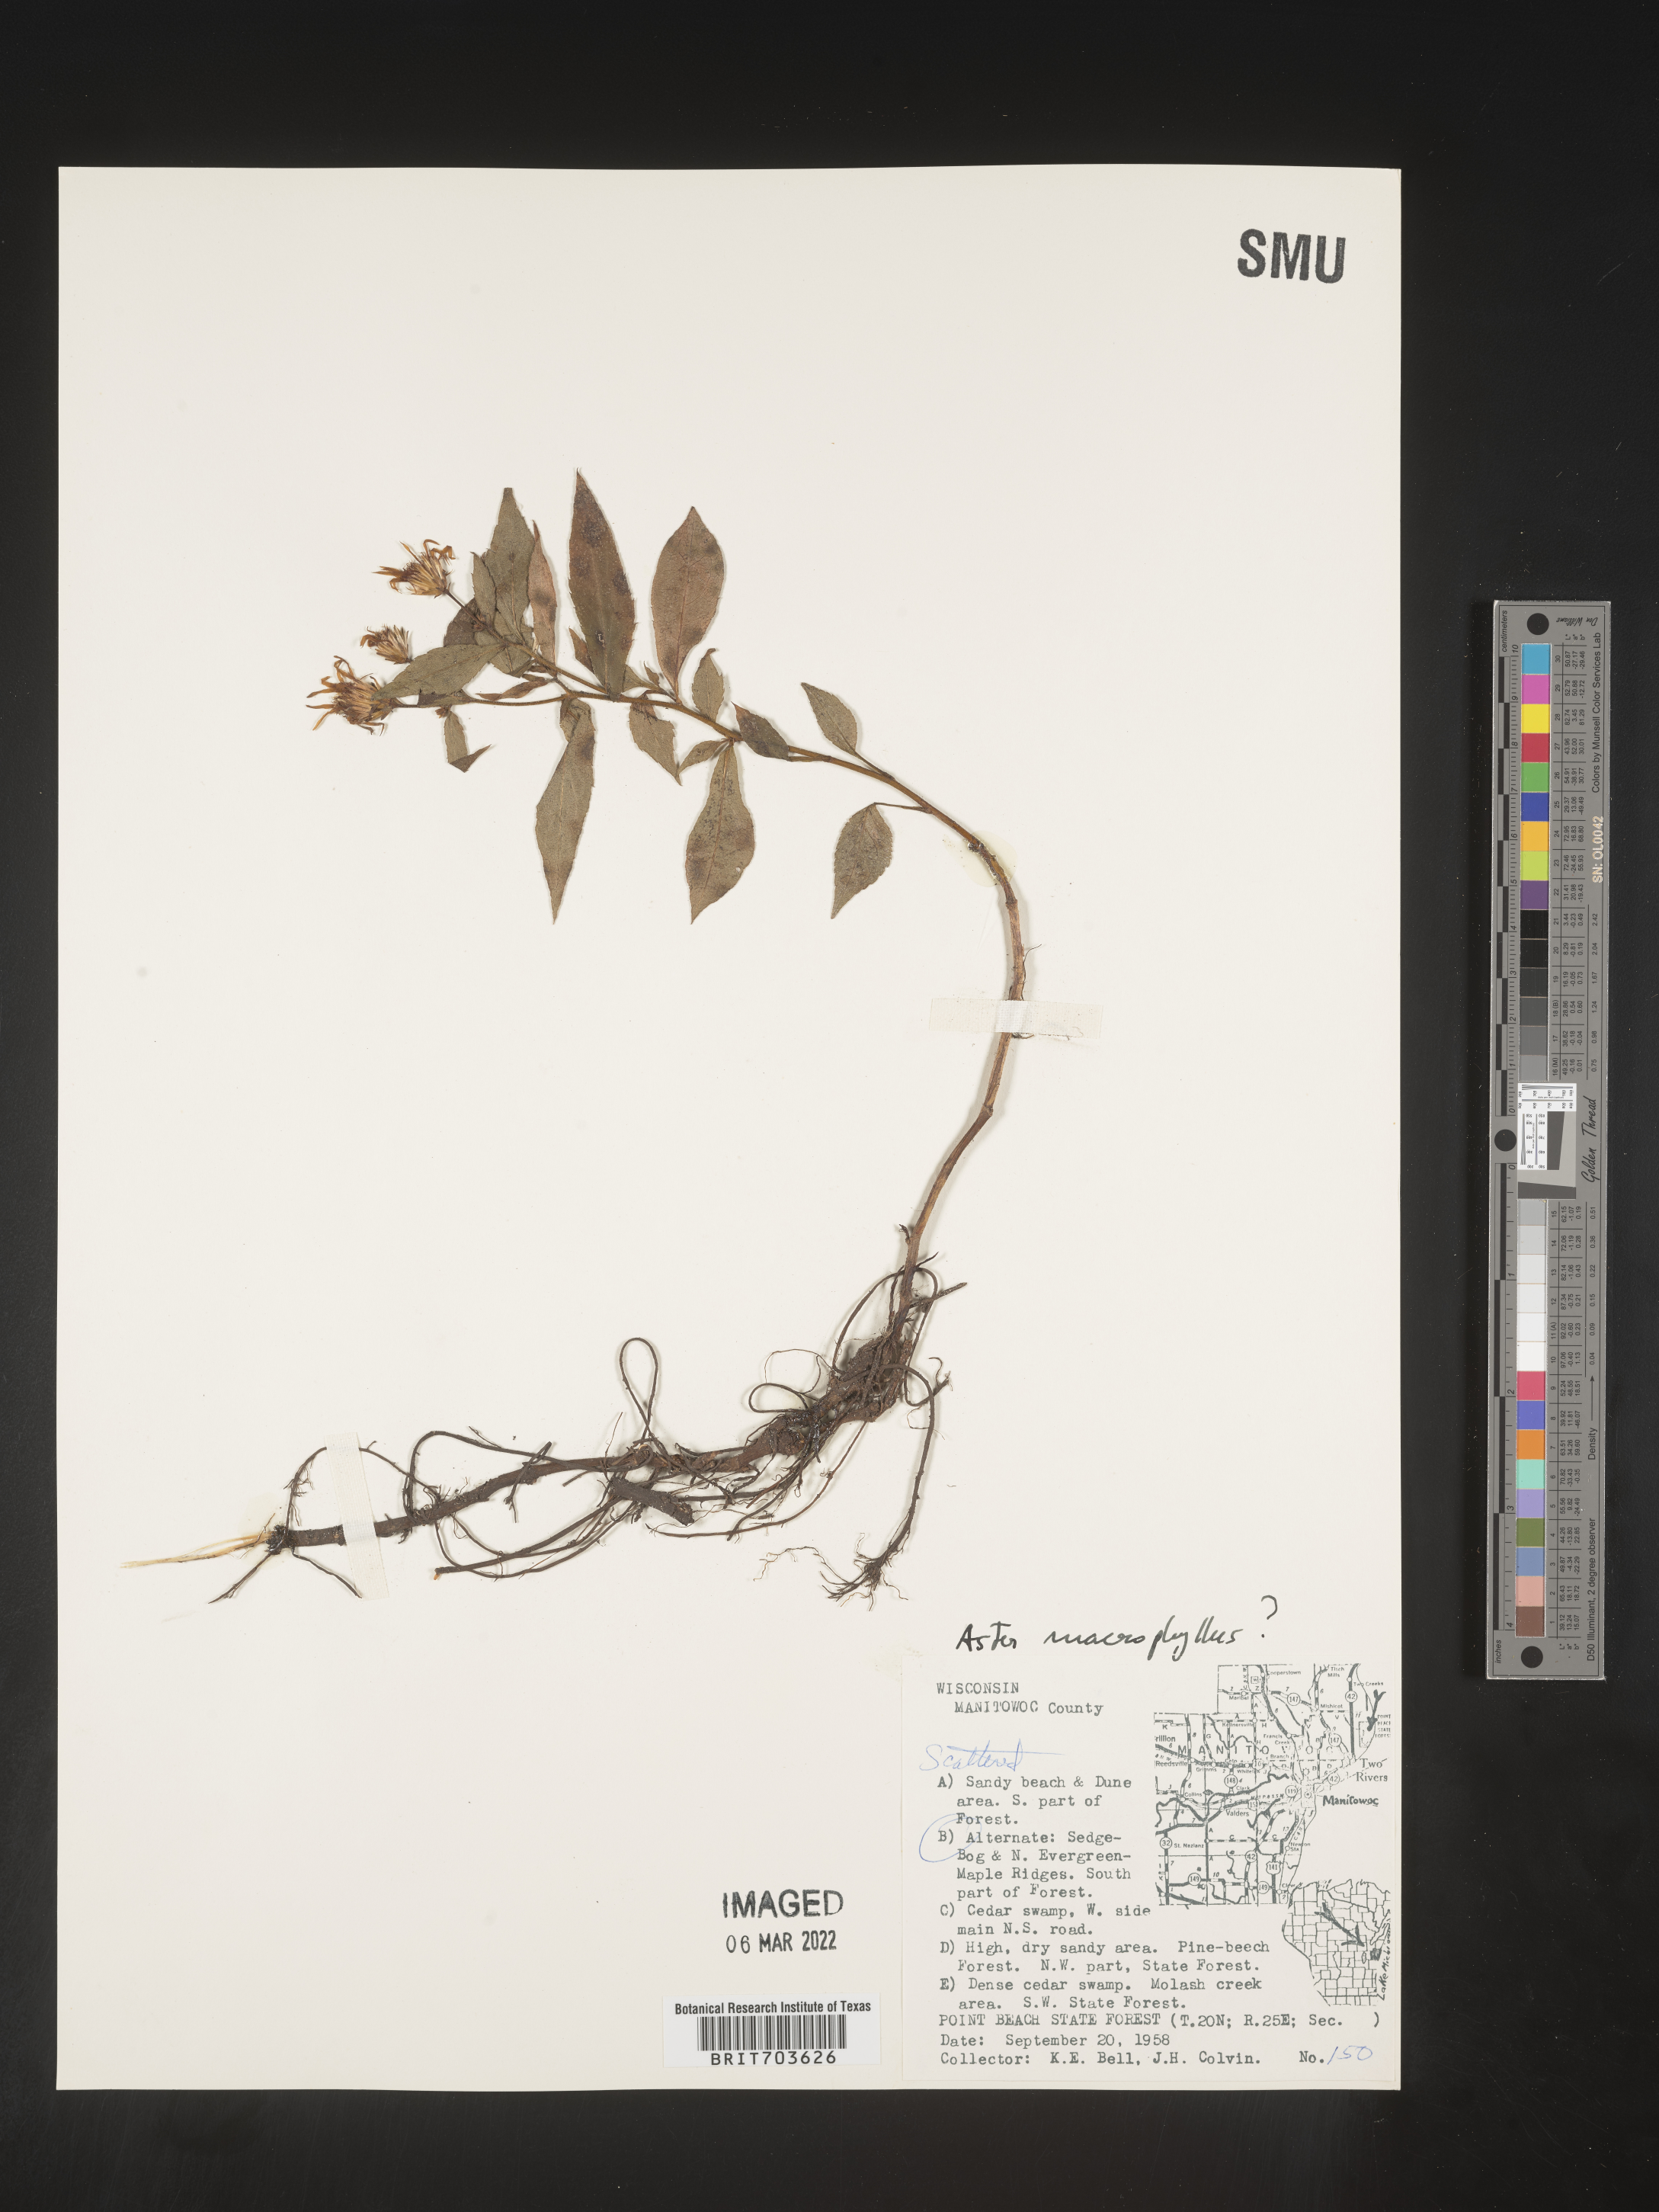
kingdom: Plantae
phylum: Tracheophyta
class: Magnoliopsida
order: Asterales
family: Asteraceae
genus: Eurybia
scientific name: Eurybia macrophylla
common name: Big-leaved aster
